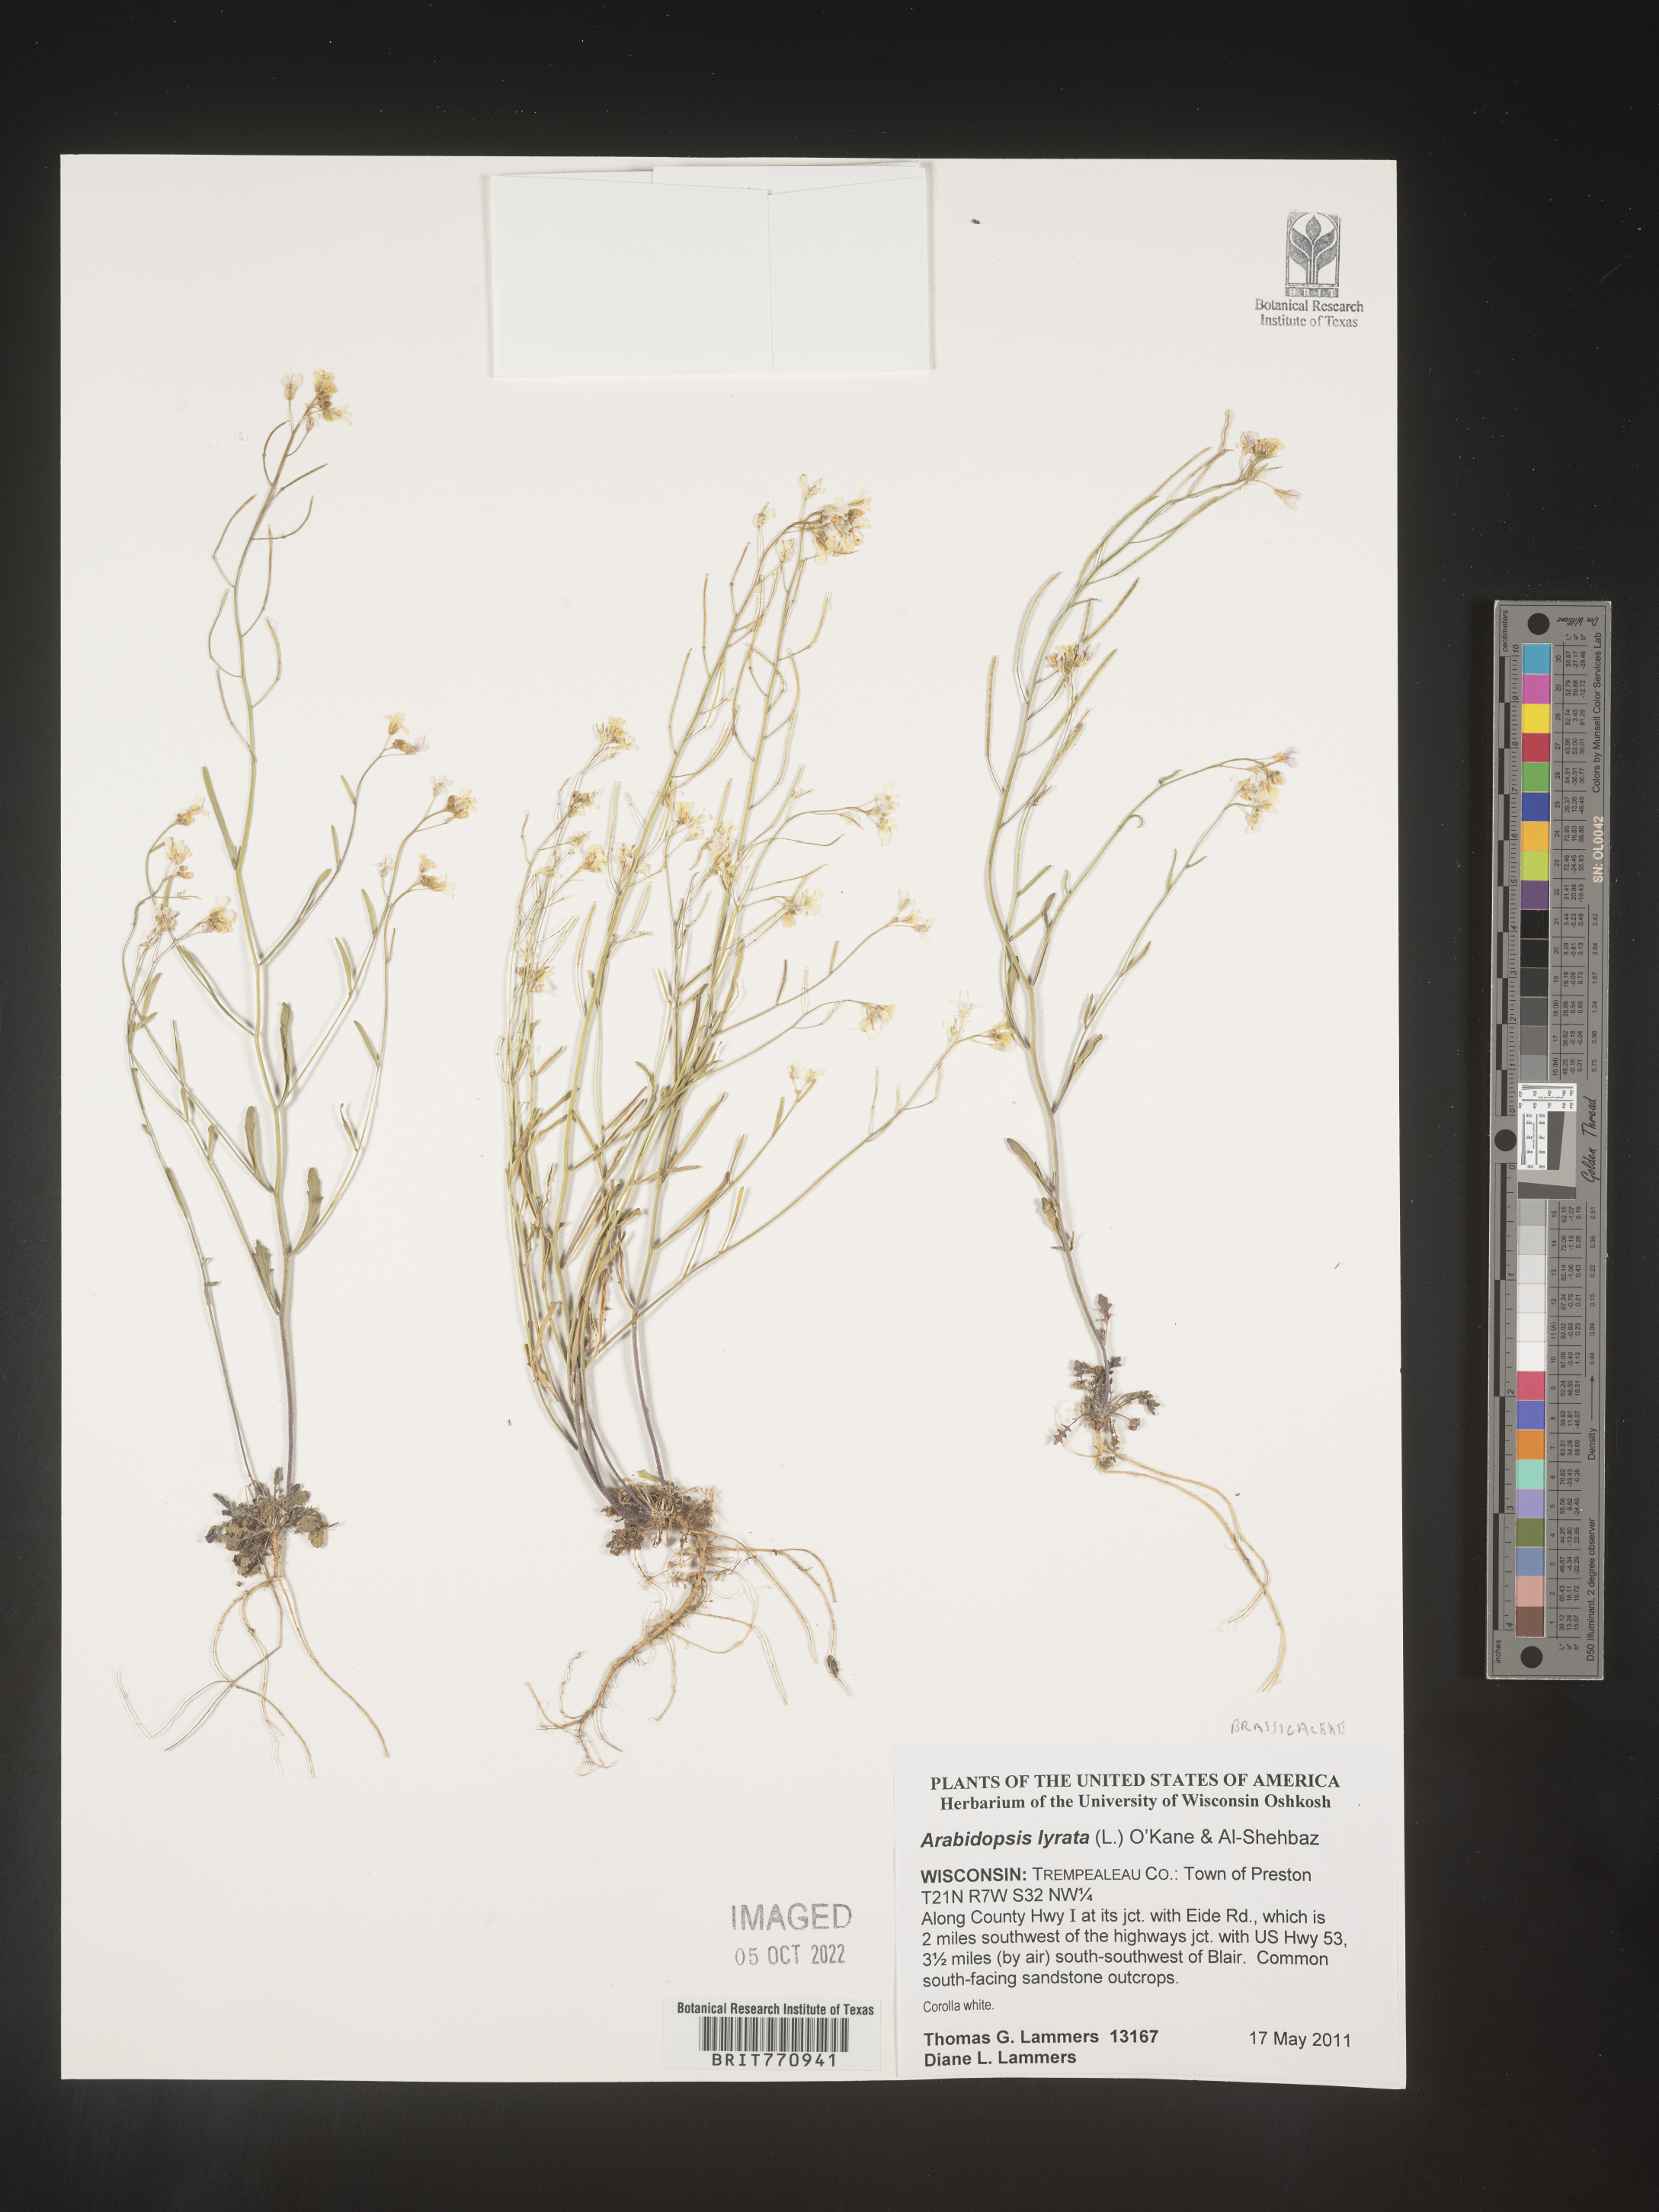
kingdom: Plantae
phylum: Tracheophyta
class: Magnoliopsida
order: Brassicales
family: Brassicaceae
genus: Arabidopsis
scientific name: Arabidopsis
